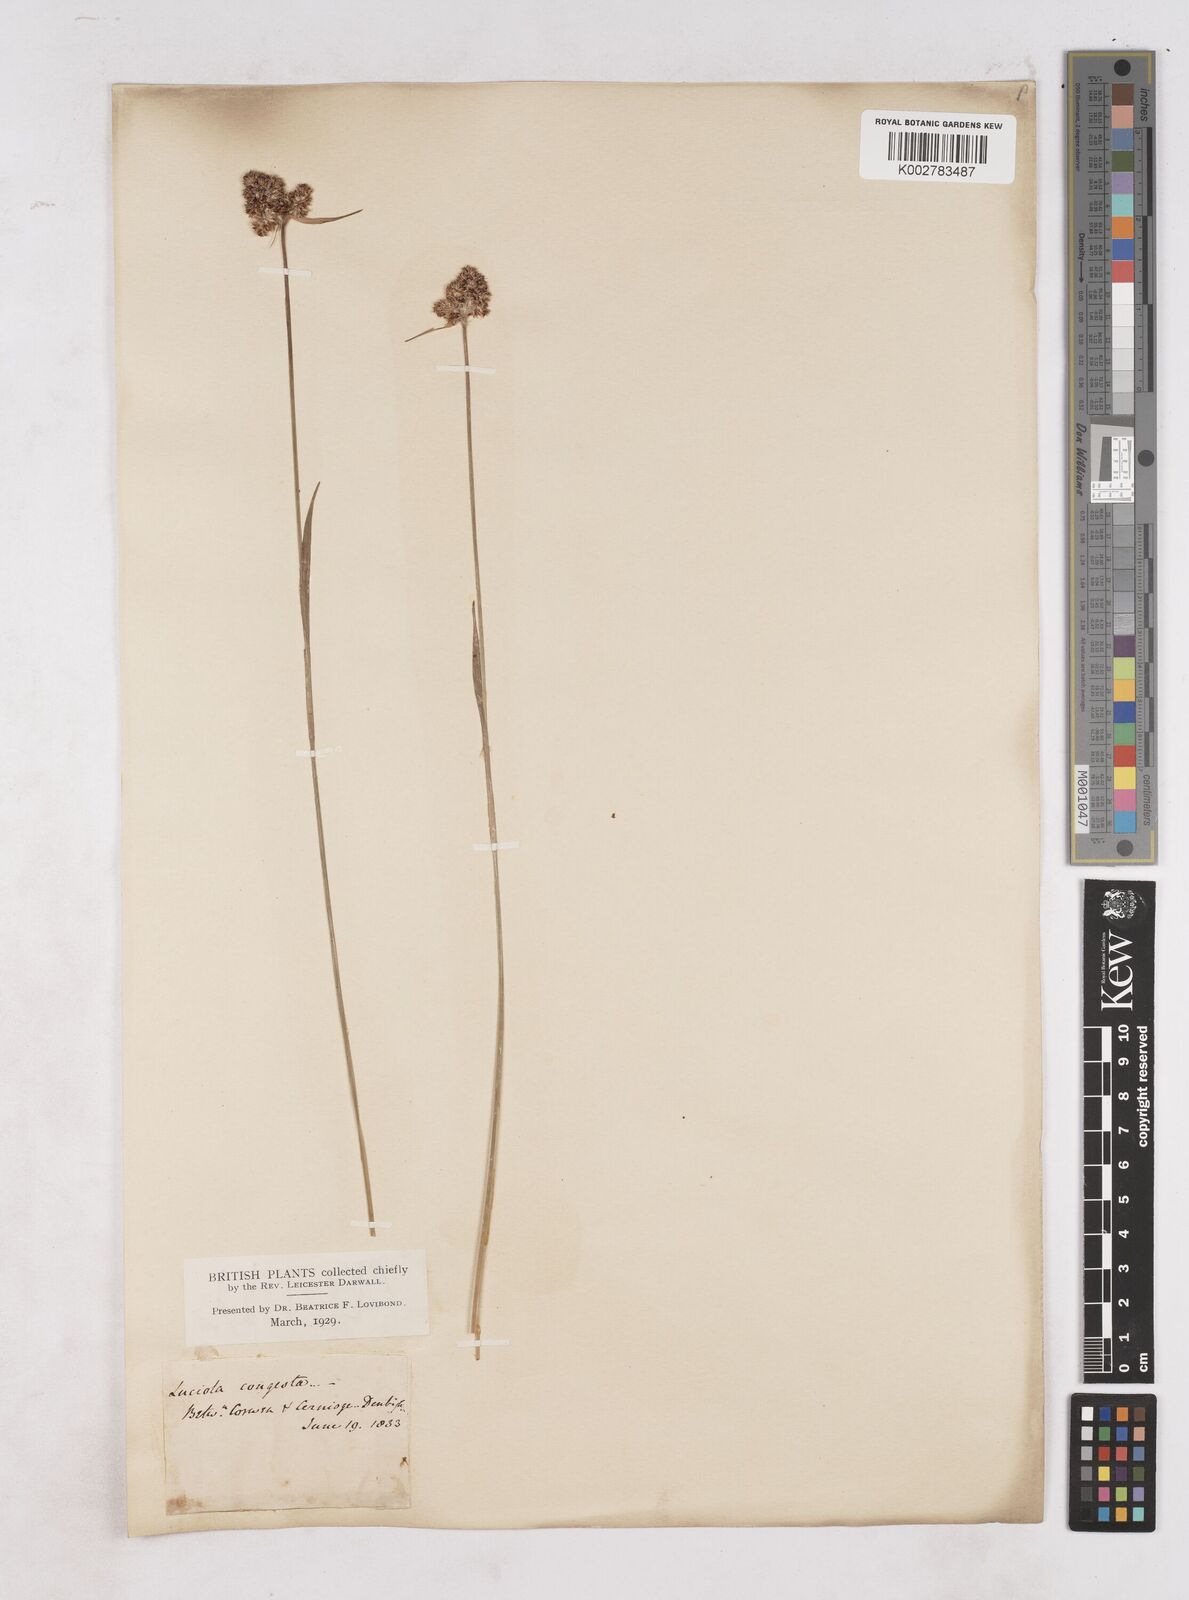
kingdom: Plantae
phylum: Tracheophyta
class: Liliopsida
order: Poales
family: Juncaceae
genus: Luzula
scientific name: Luzula campestris
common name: Field wood-rush
